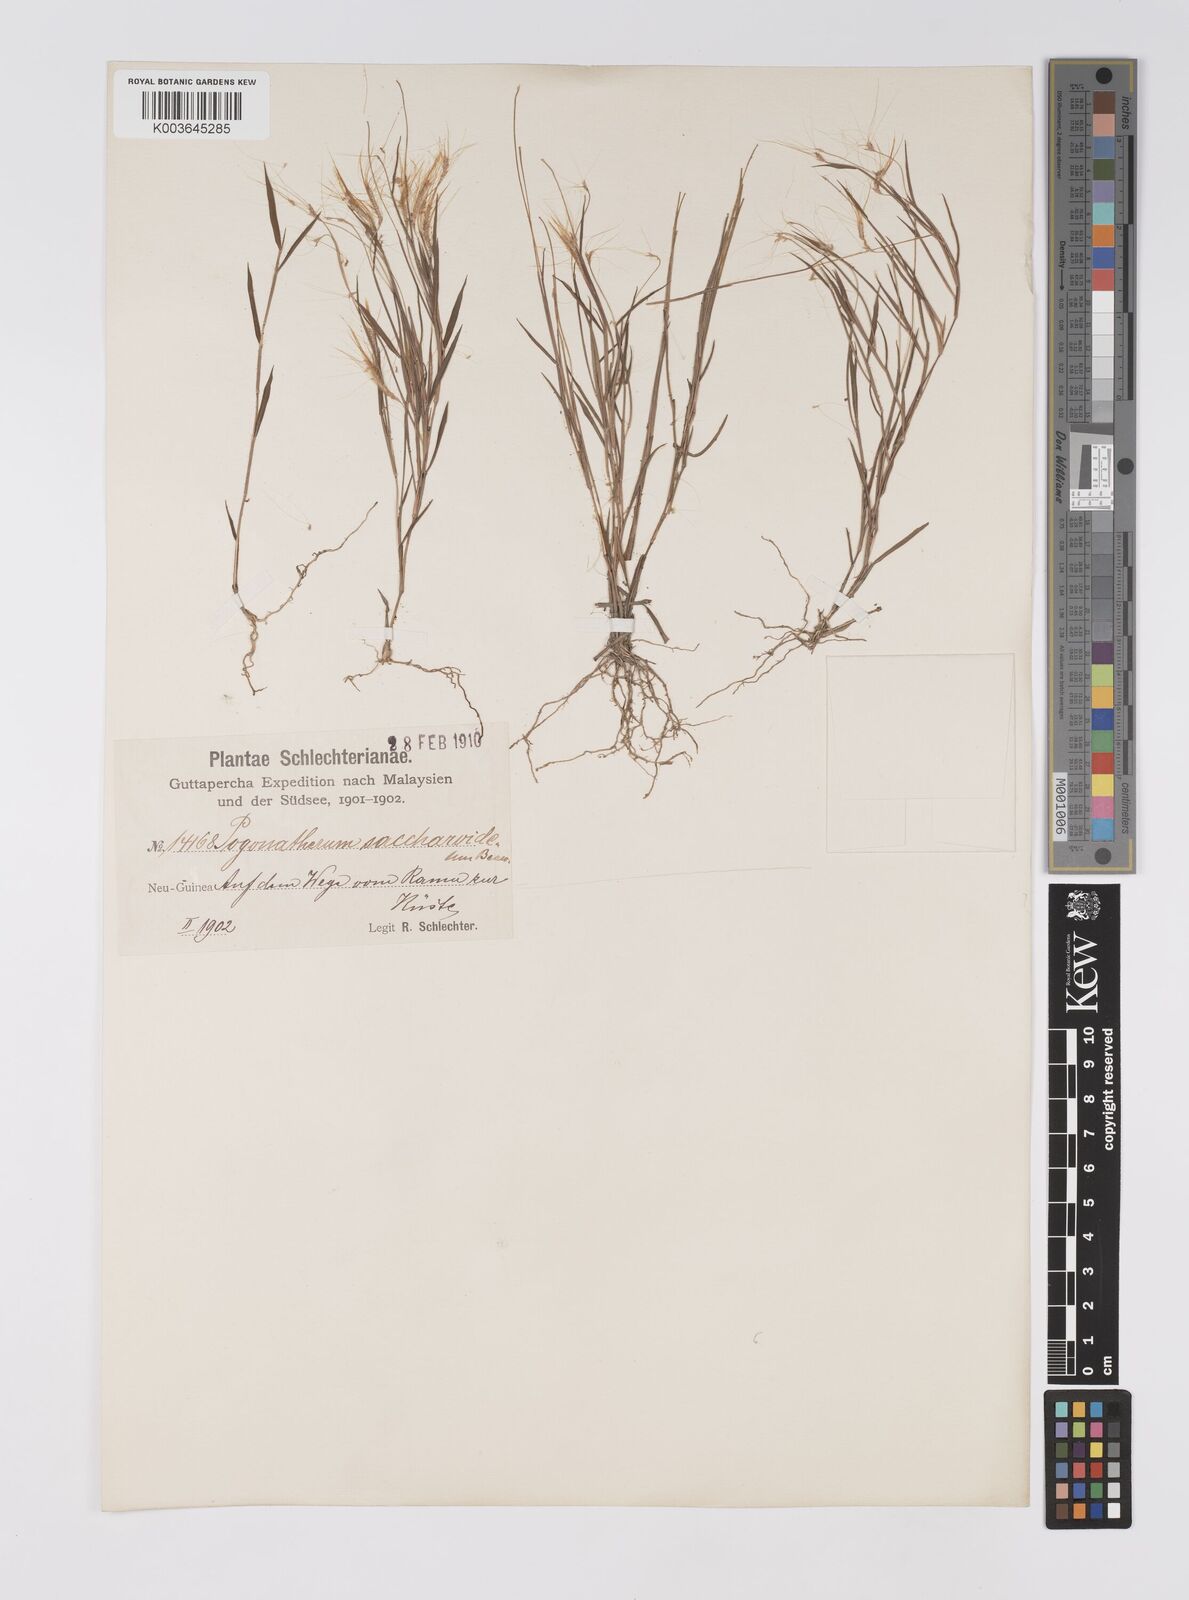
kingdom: Plantae
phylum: Tracheophyta
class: Liliopsida
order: Poales
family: Poaceae
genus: Pogonatherum
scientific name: Pogonatherum crinitum
